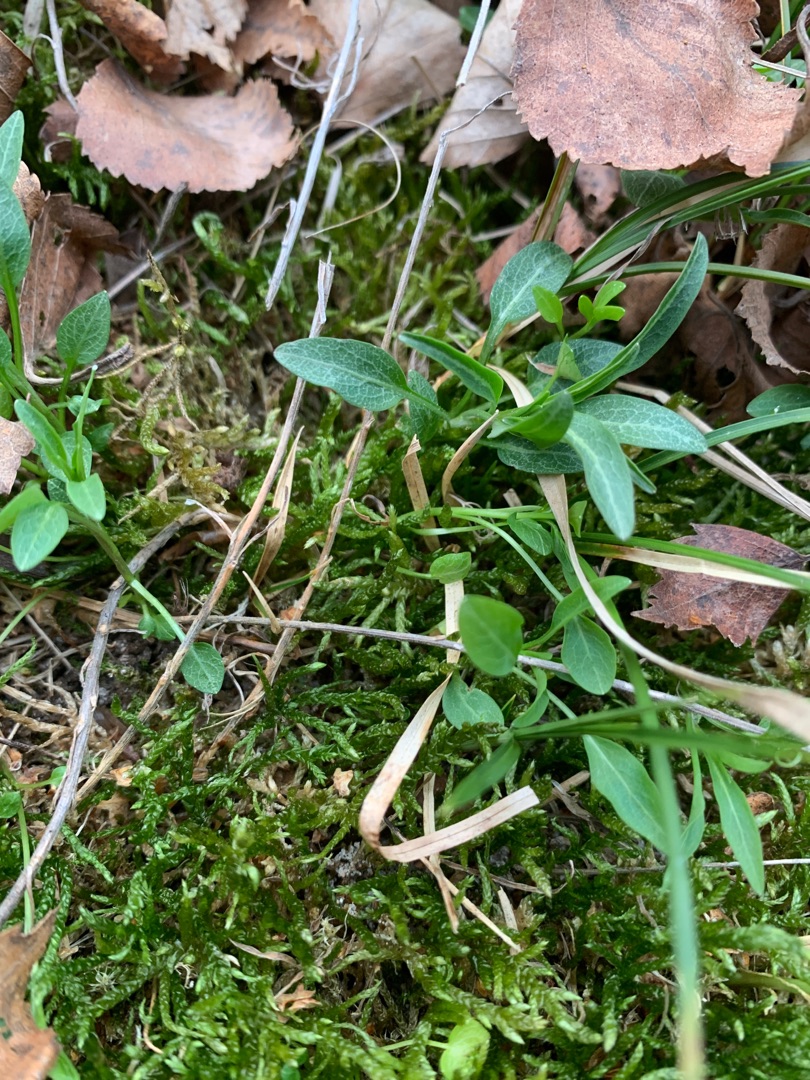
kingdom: Plantae
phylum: Tracheophyta
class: Magnoliopsida
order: Asterales
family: Campanulaceae
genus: Campanula
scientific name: Campanula rotundifolia
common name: Liden klokke
